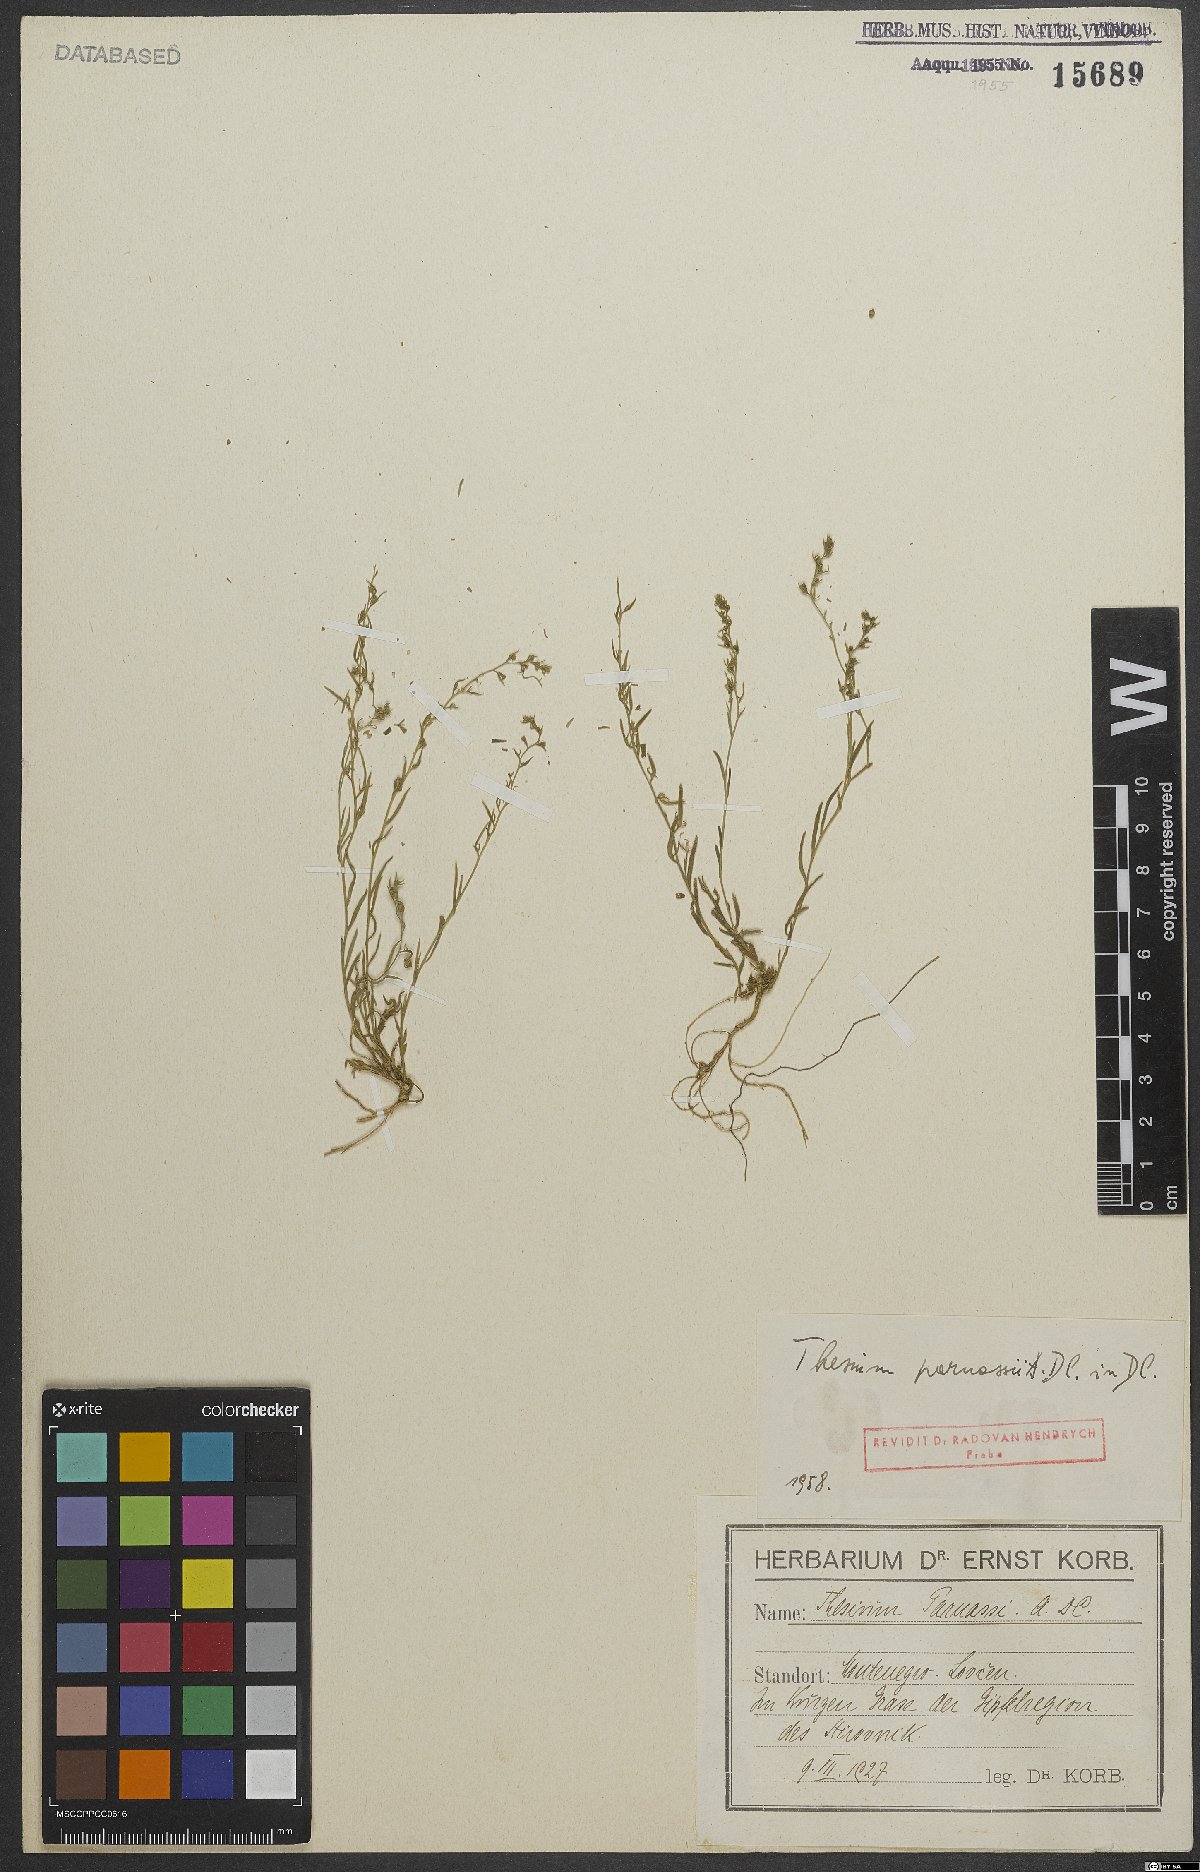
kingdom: Plantae
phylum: Tracheophyta
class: Magnoliopsida
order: Santalales
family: Thesiaceae
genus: Thesium
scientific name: Thesium parnassi
